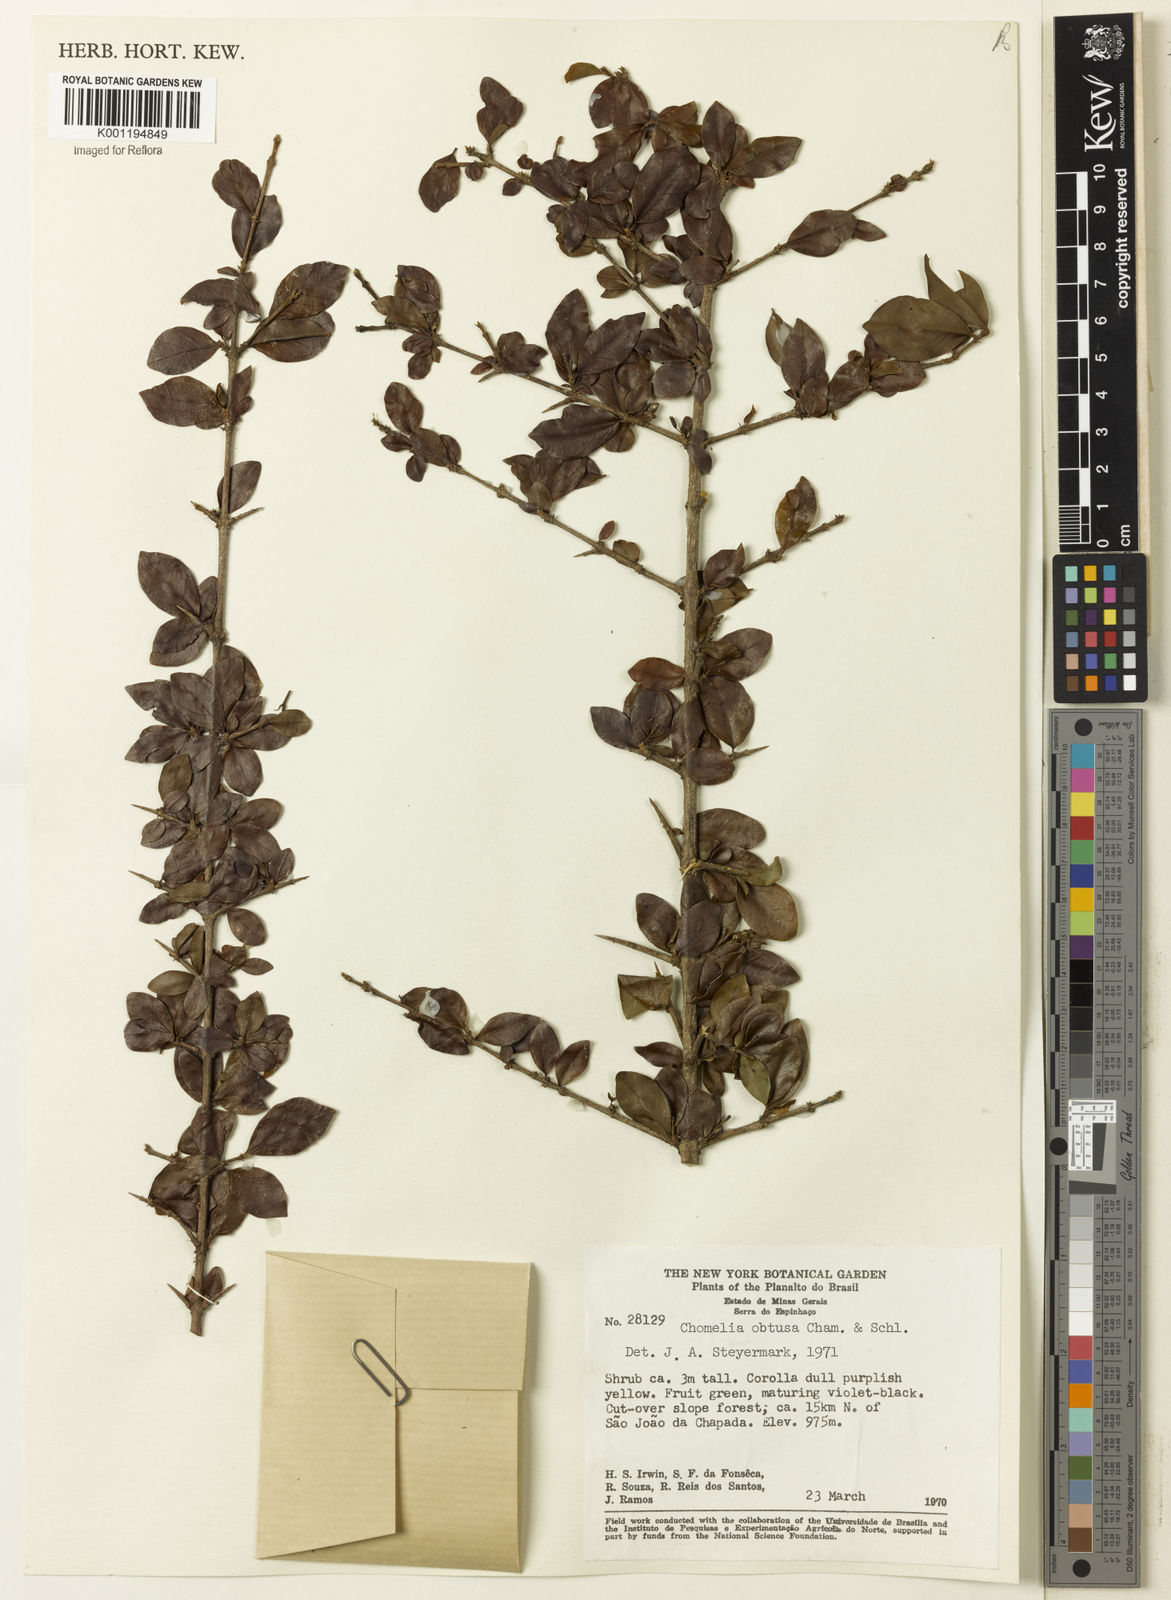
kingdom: Plantae
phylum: Tracheophyta
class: Magnoliopsida
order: Gentianales
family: Rubiaceae
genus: Chomelia
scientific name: Chomelia obtusa
